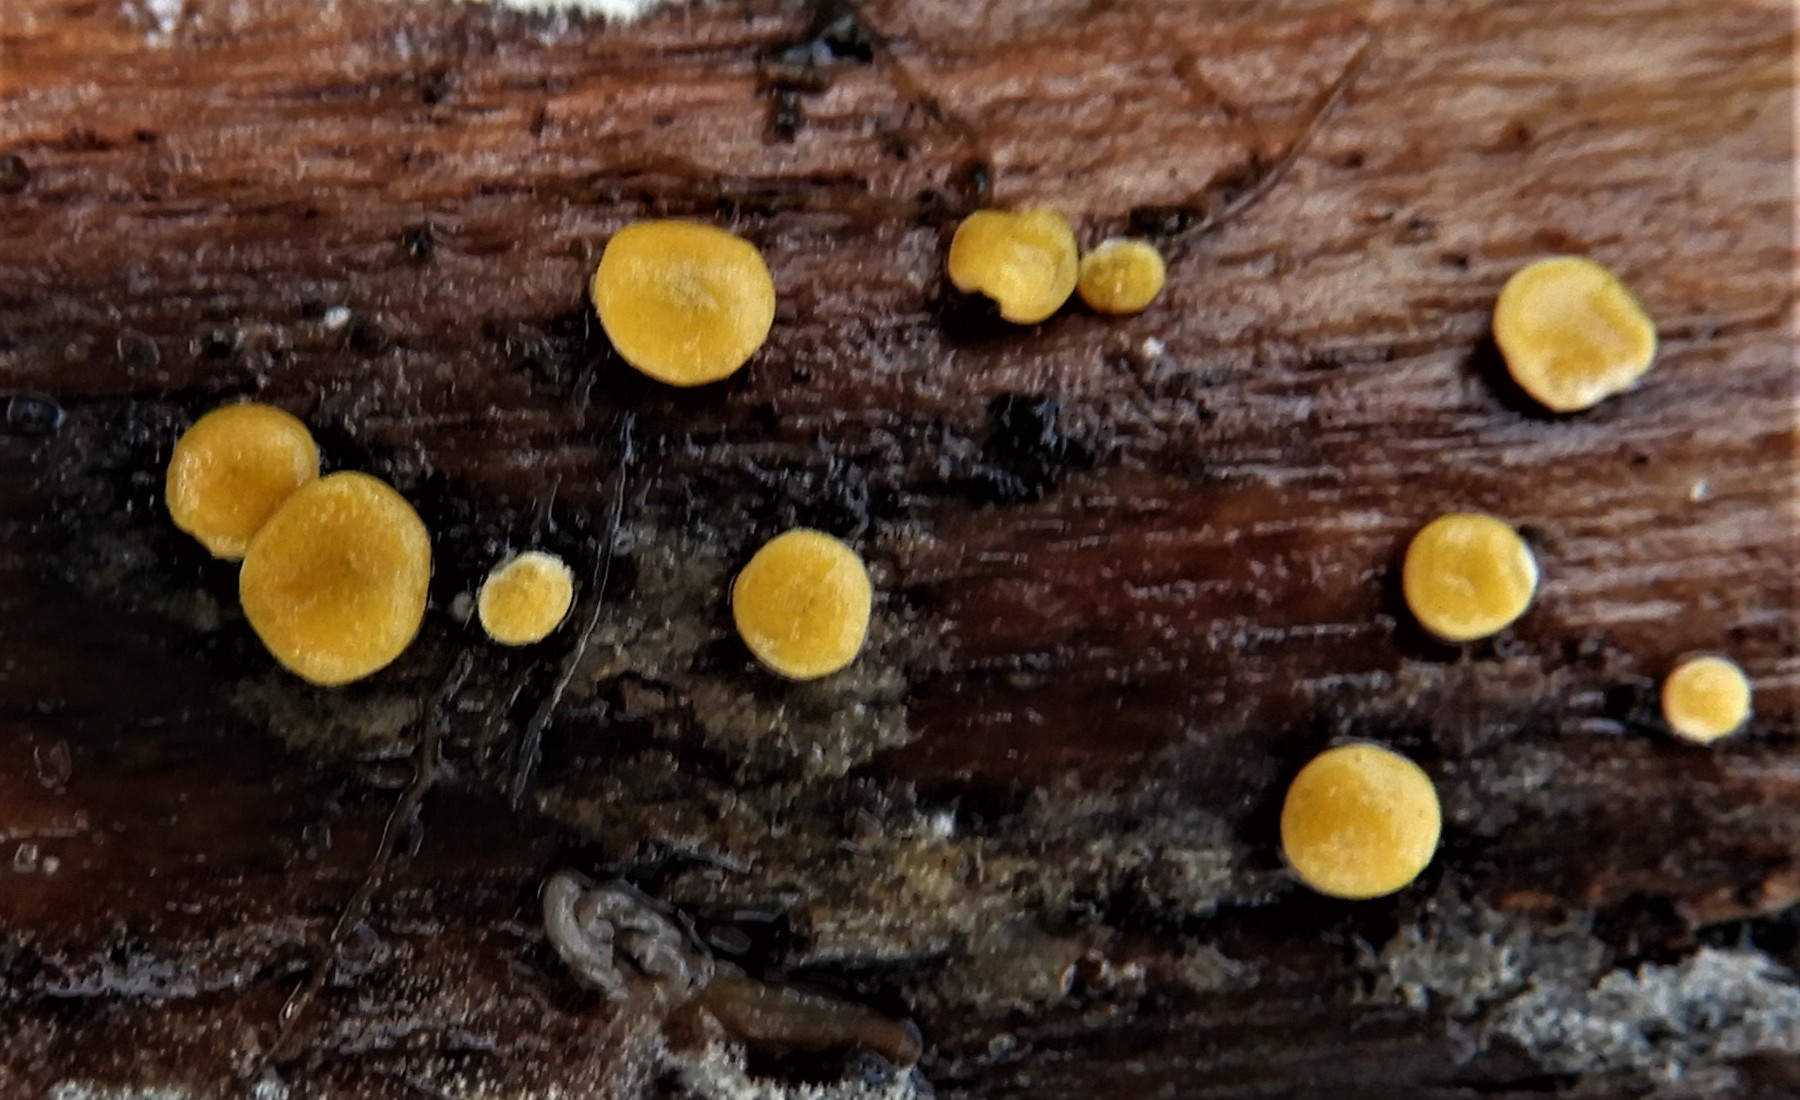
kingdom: Fungi
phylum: Ascomycota
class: Sordariomycetes
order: Hypocreales
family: Hypocreaceae
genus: Trichoderma
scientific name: Trichoderma aureoviride
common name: æggegul kødkerne
